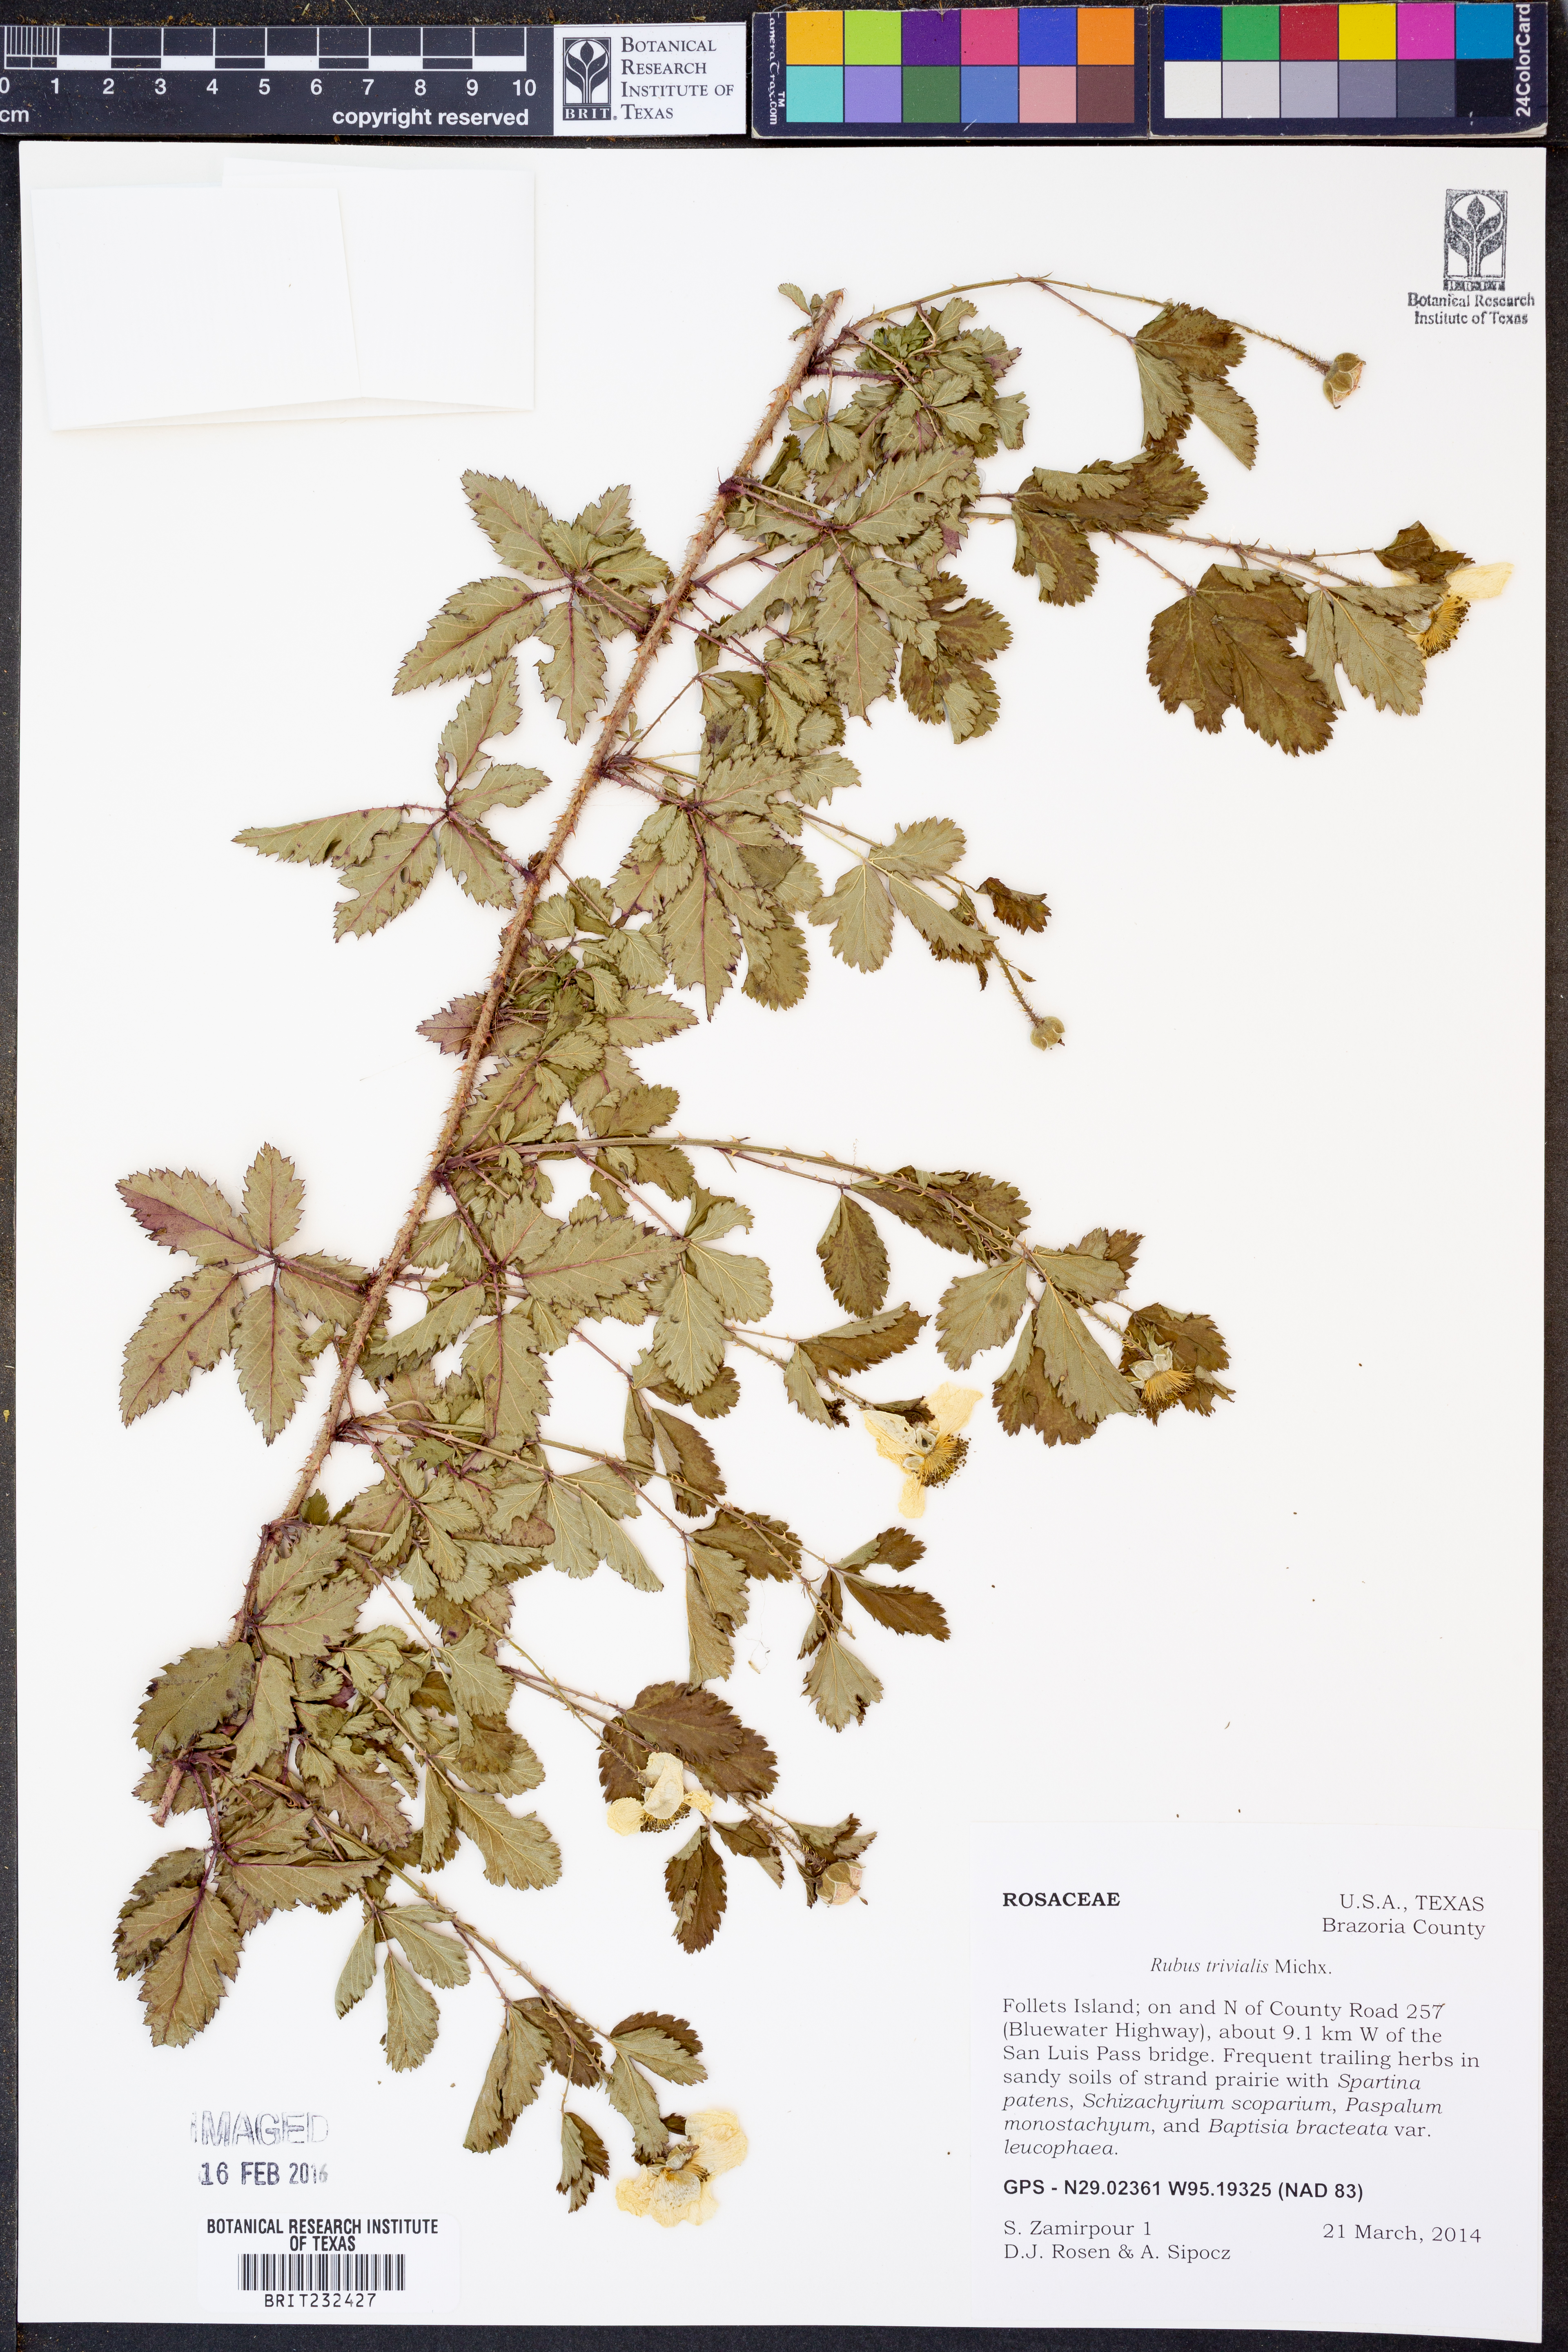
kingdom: Plantae
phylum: Tracheophyta
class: Magnoliopsida
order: Rosales
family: Rosaceae
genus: Rubus
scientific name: Rubus trivialis
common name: Southern dewberry
